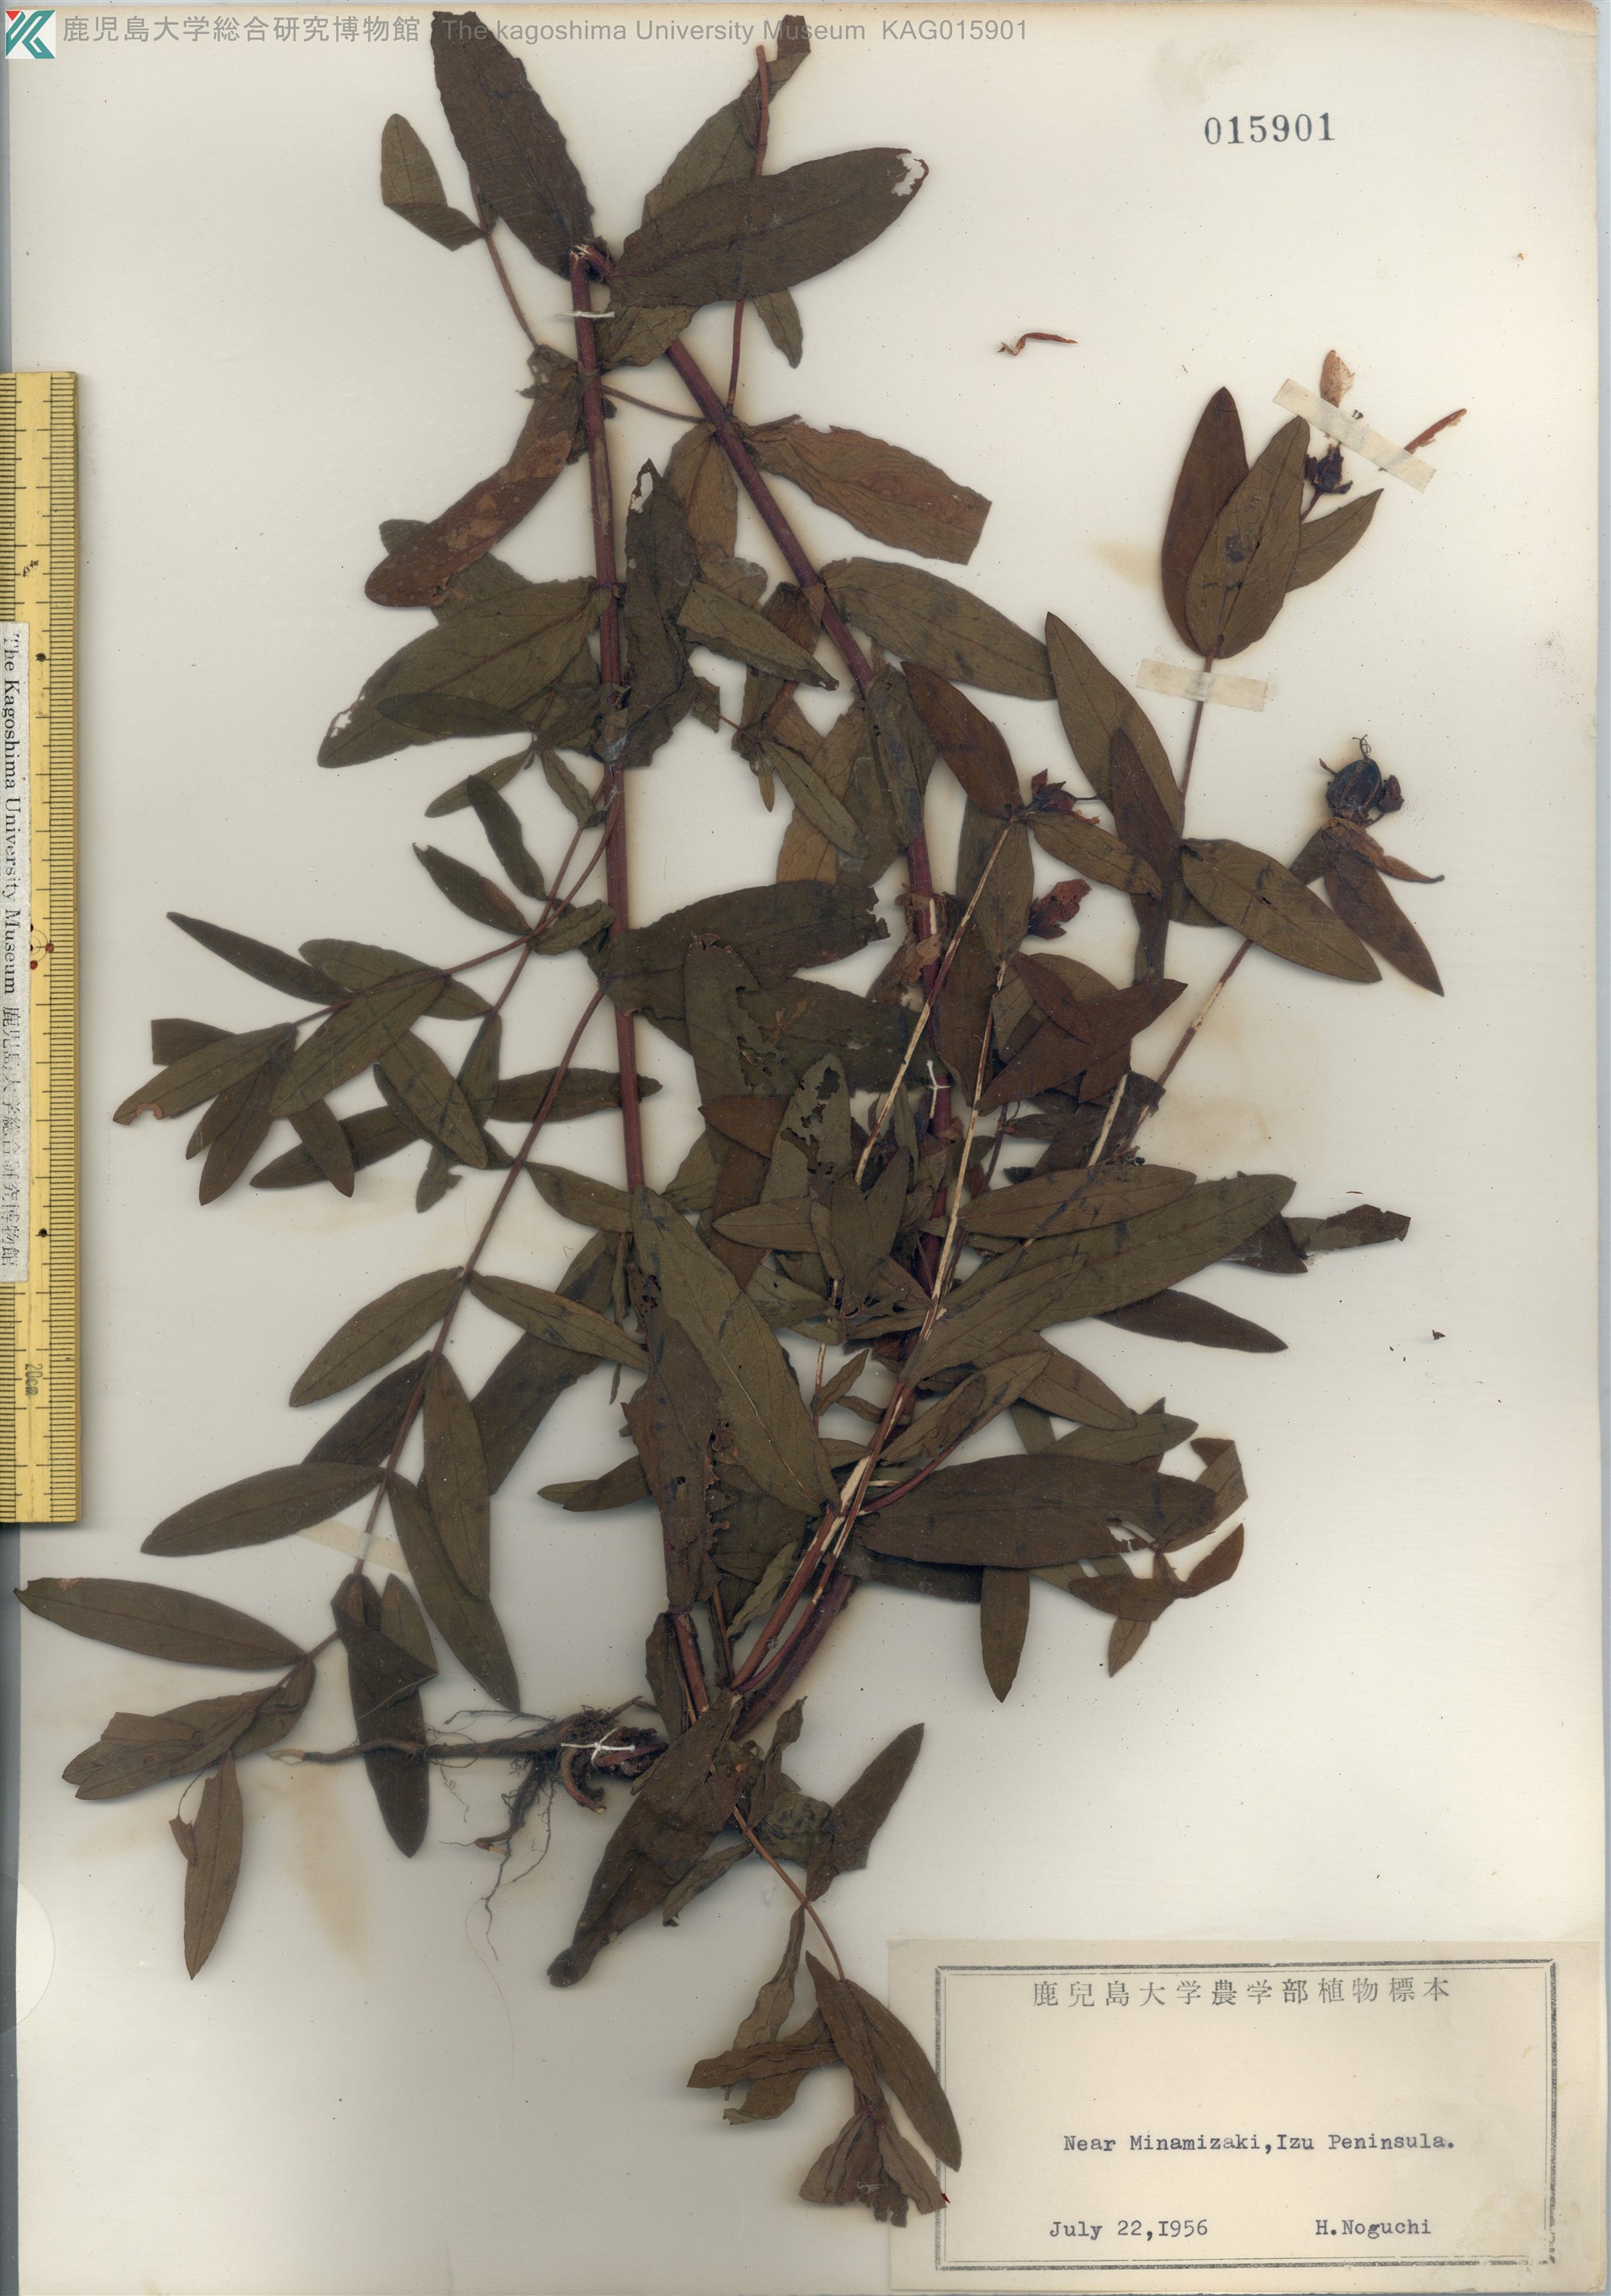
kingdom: Plantae
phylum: Tracheophyta
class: Magnoliopsida
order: Malpighiales
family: Hypericaceae
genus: Hypericum
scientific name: Hypericum ascyron
